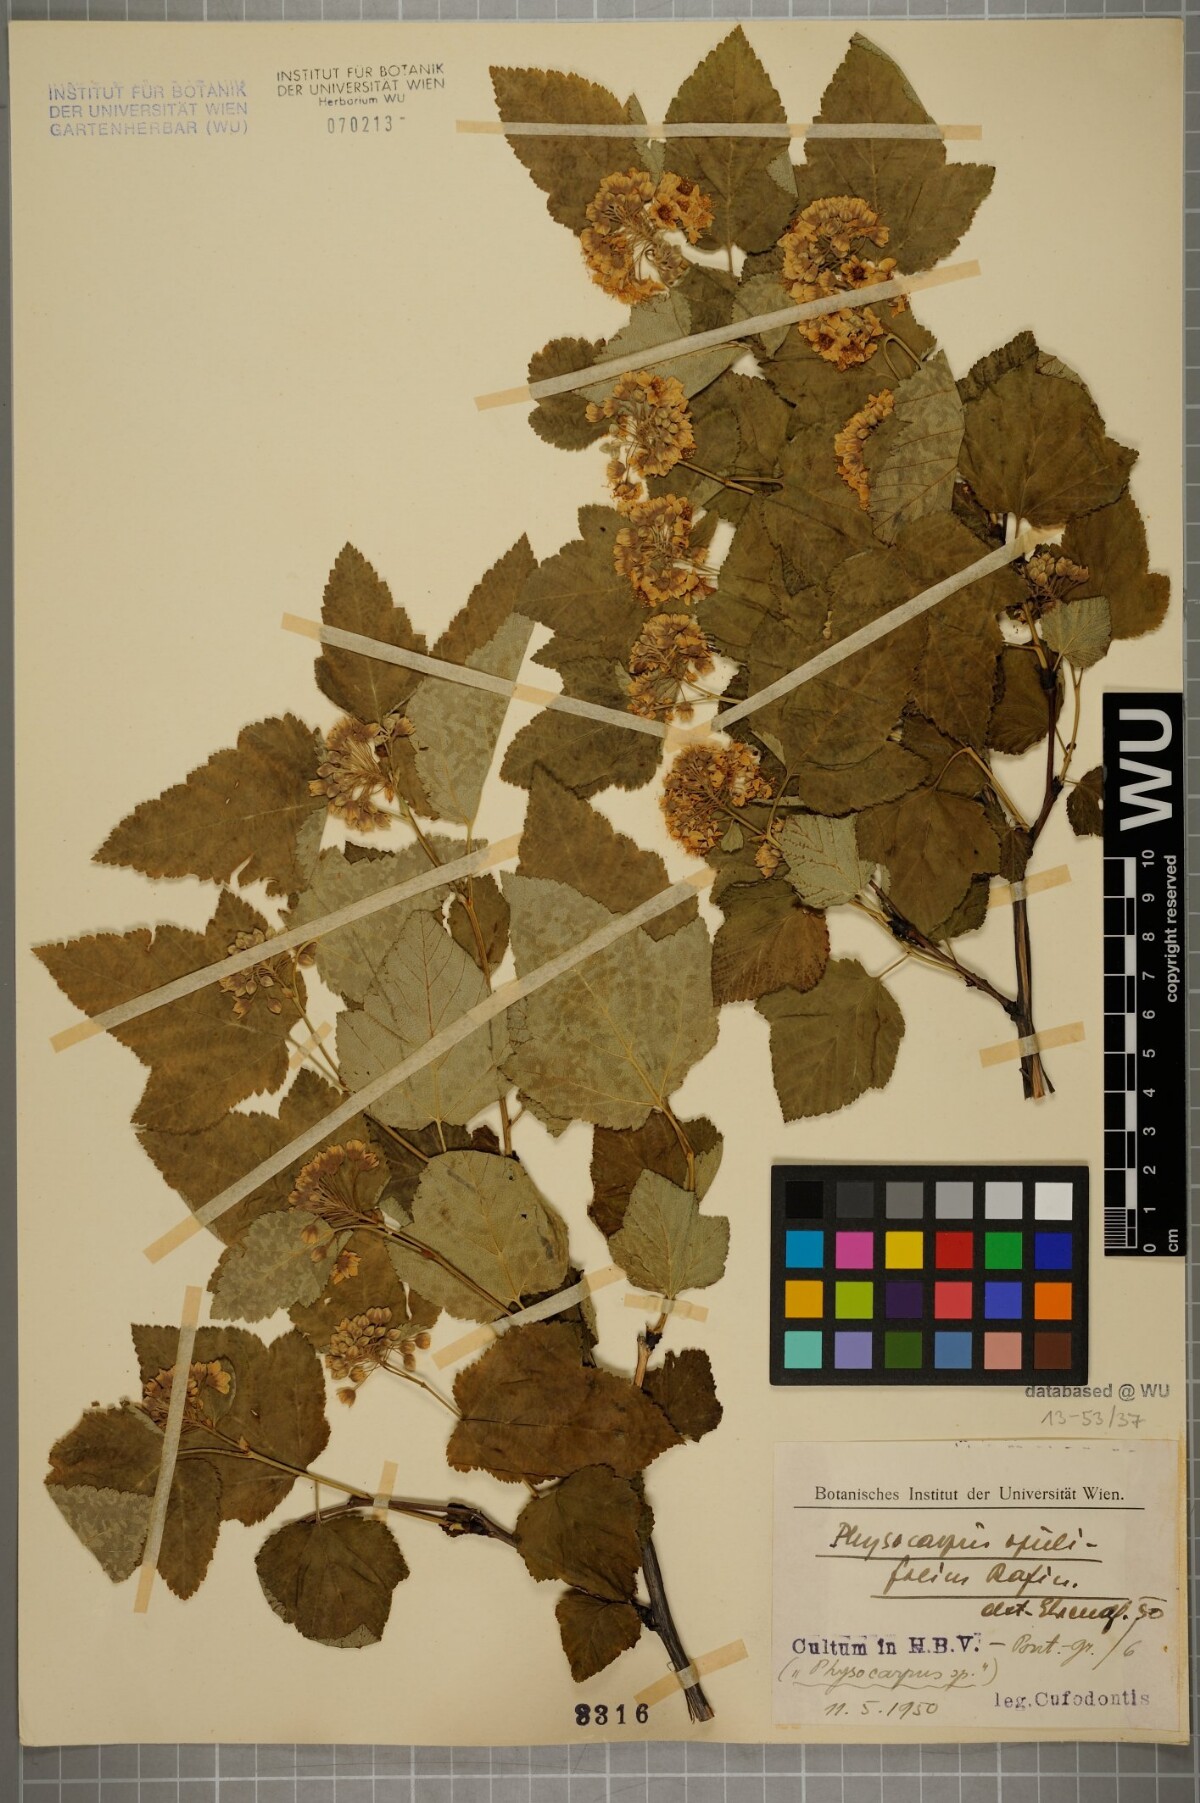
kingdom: Plantae
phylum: Tracheophyta
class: Magnoliopsida
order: Rosales
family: Rosaceae
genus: Physocarpus
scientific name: Physocarpus opulifolius
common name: Ninebark
